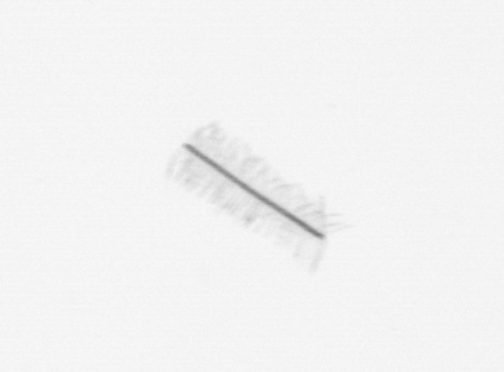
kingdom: Chromista
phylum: Ochrophyta
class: Bacillariophyceae
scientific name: Bacillariophyceae
